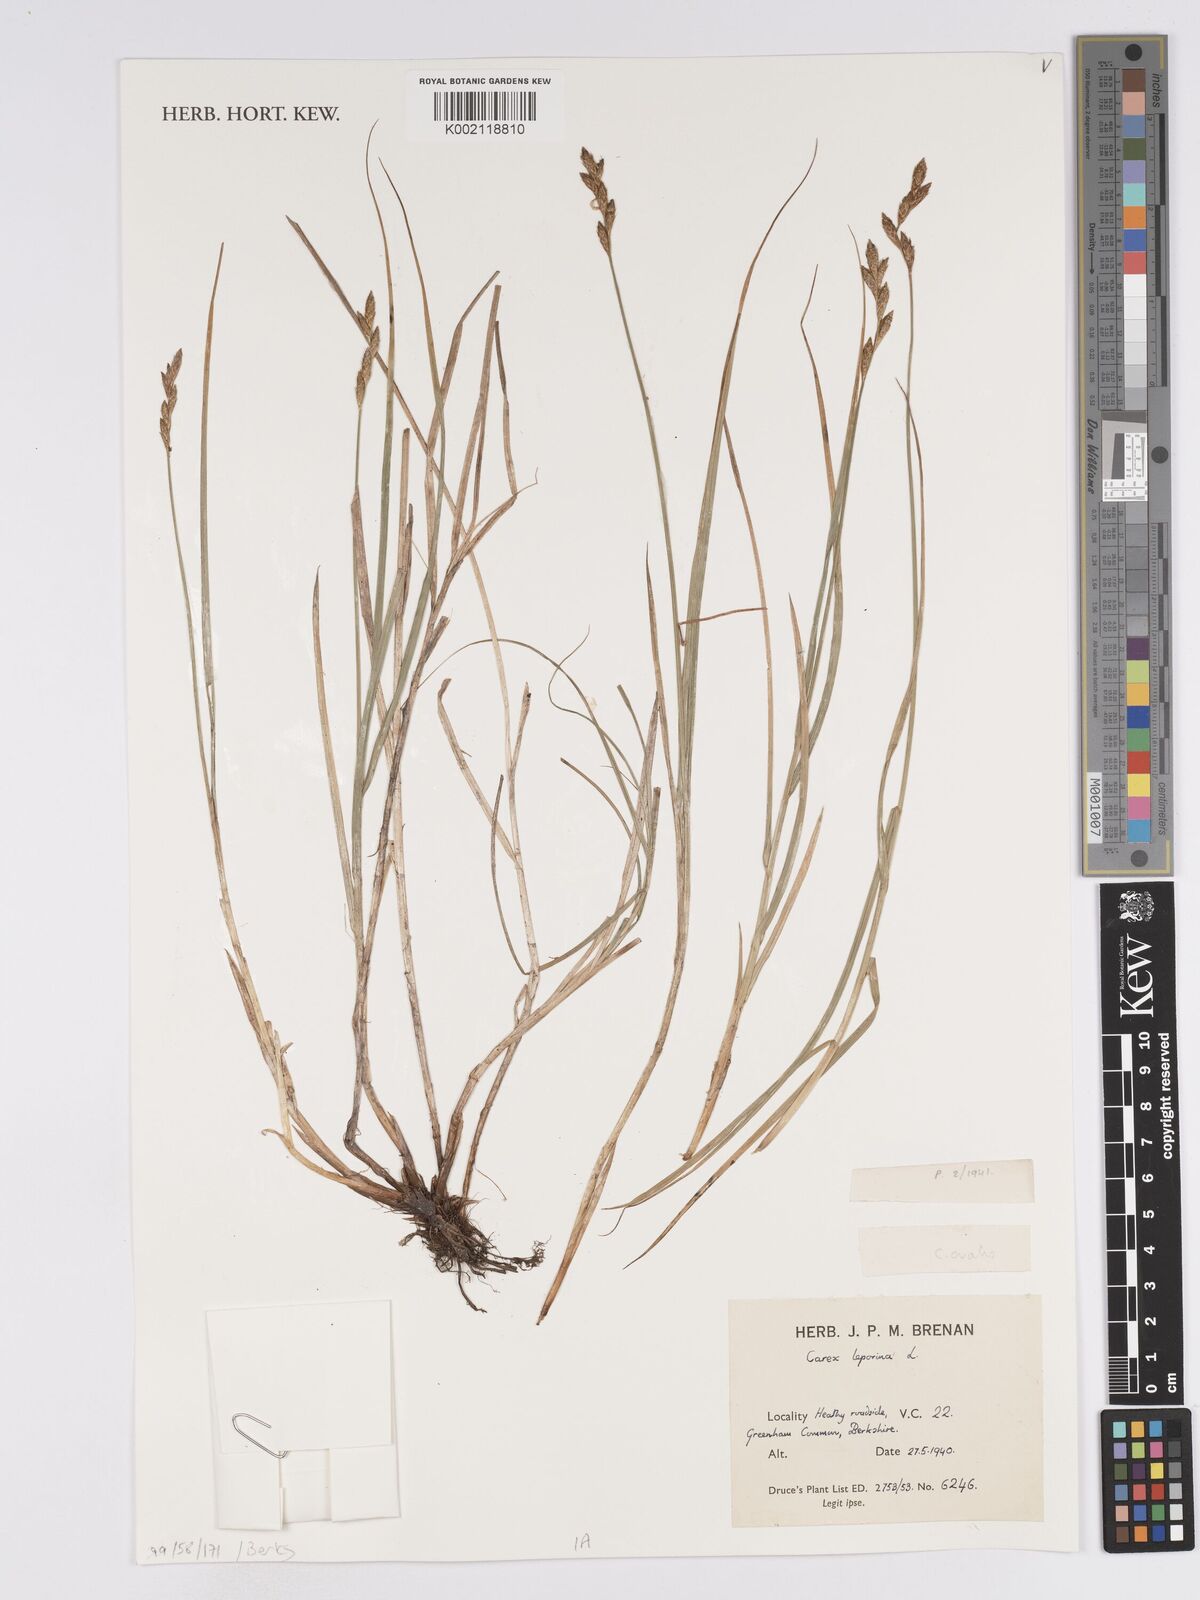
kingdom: Plantae
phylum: Tracheophyta
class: Liliopsida
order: Poales
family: Cyperaceae
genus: Carex
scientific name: Carex leporina
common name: Oval sedge
